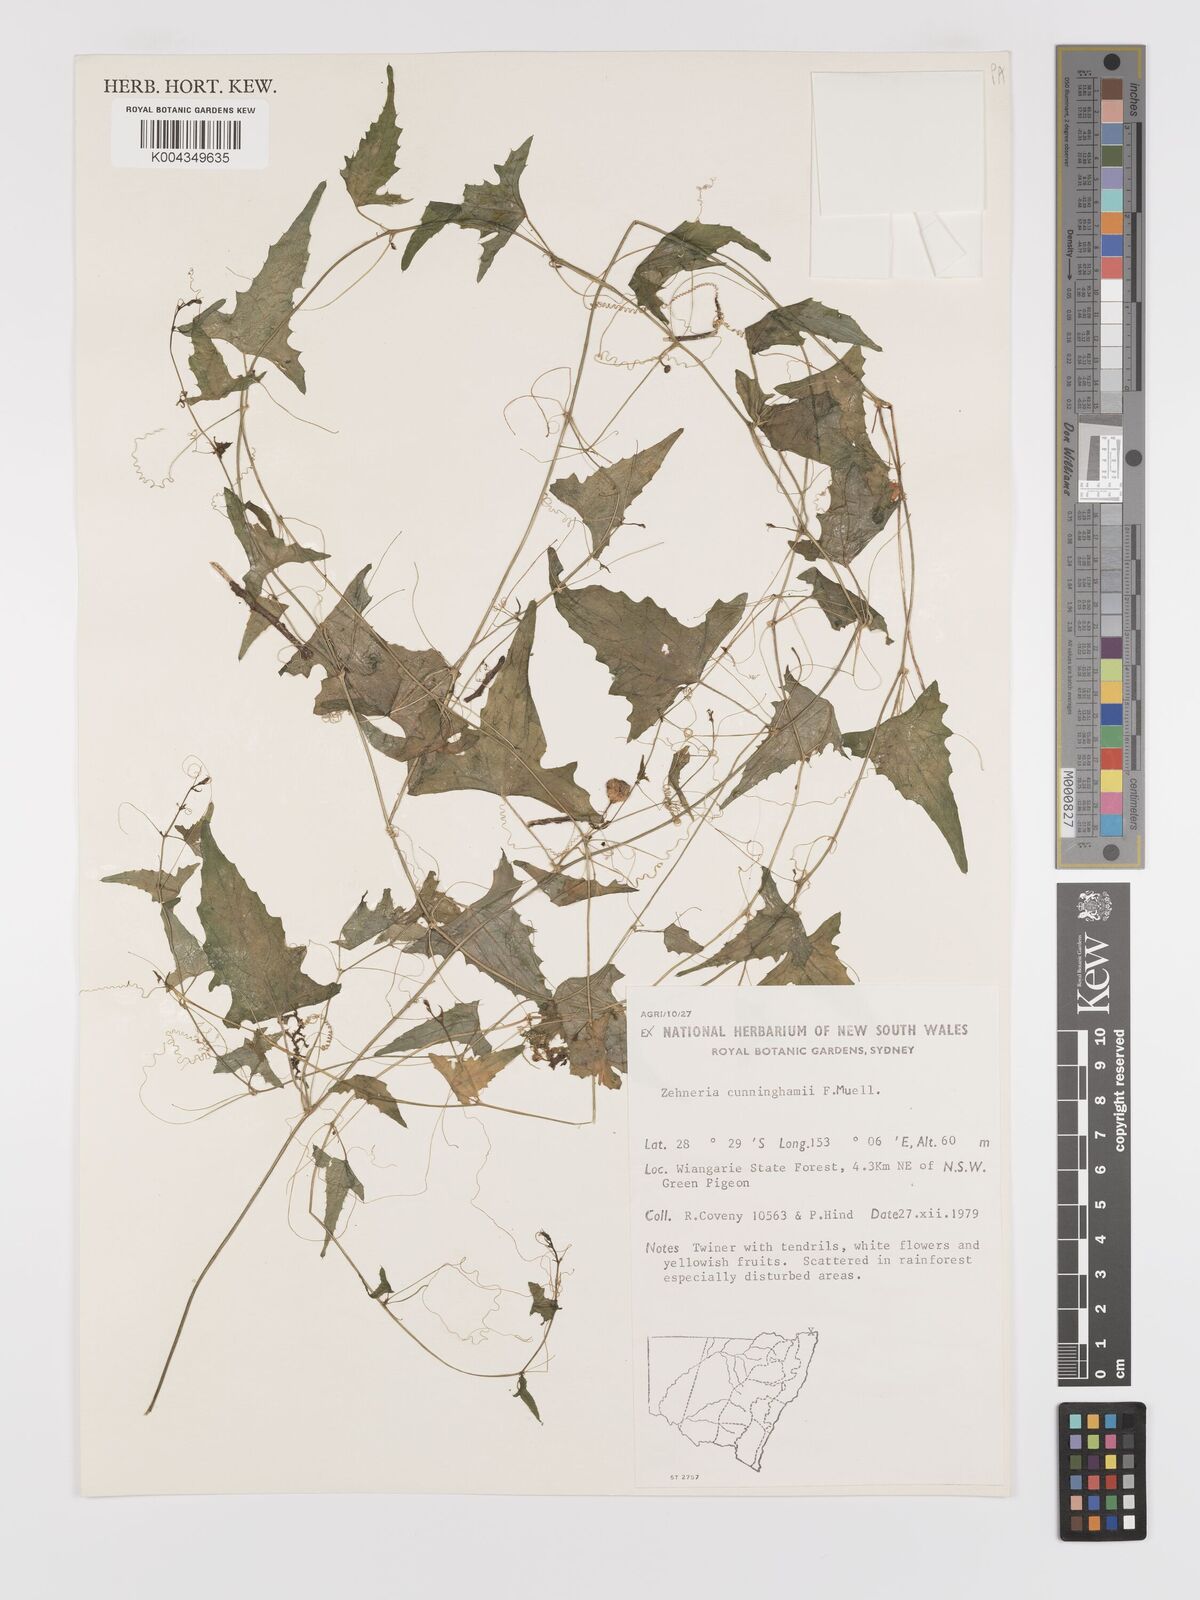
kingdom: Plantae
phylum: Tracheophyta
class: Magnoliopsida
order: Cucurbitales
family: Cucurbitaceae
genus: Zehneria
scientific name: Zehneria cunninghamii
